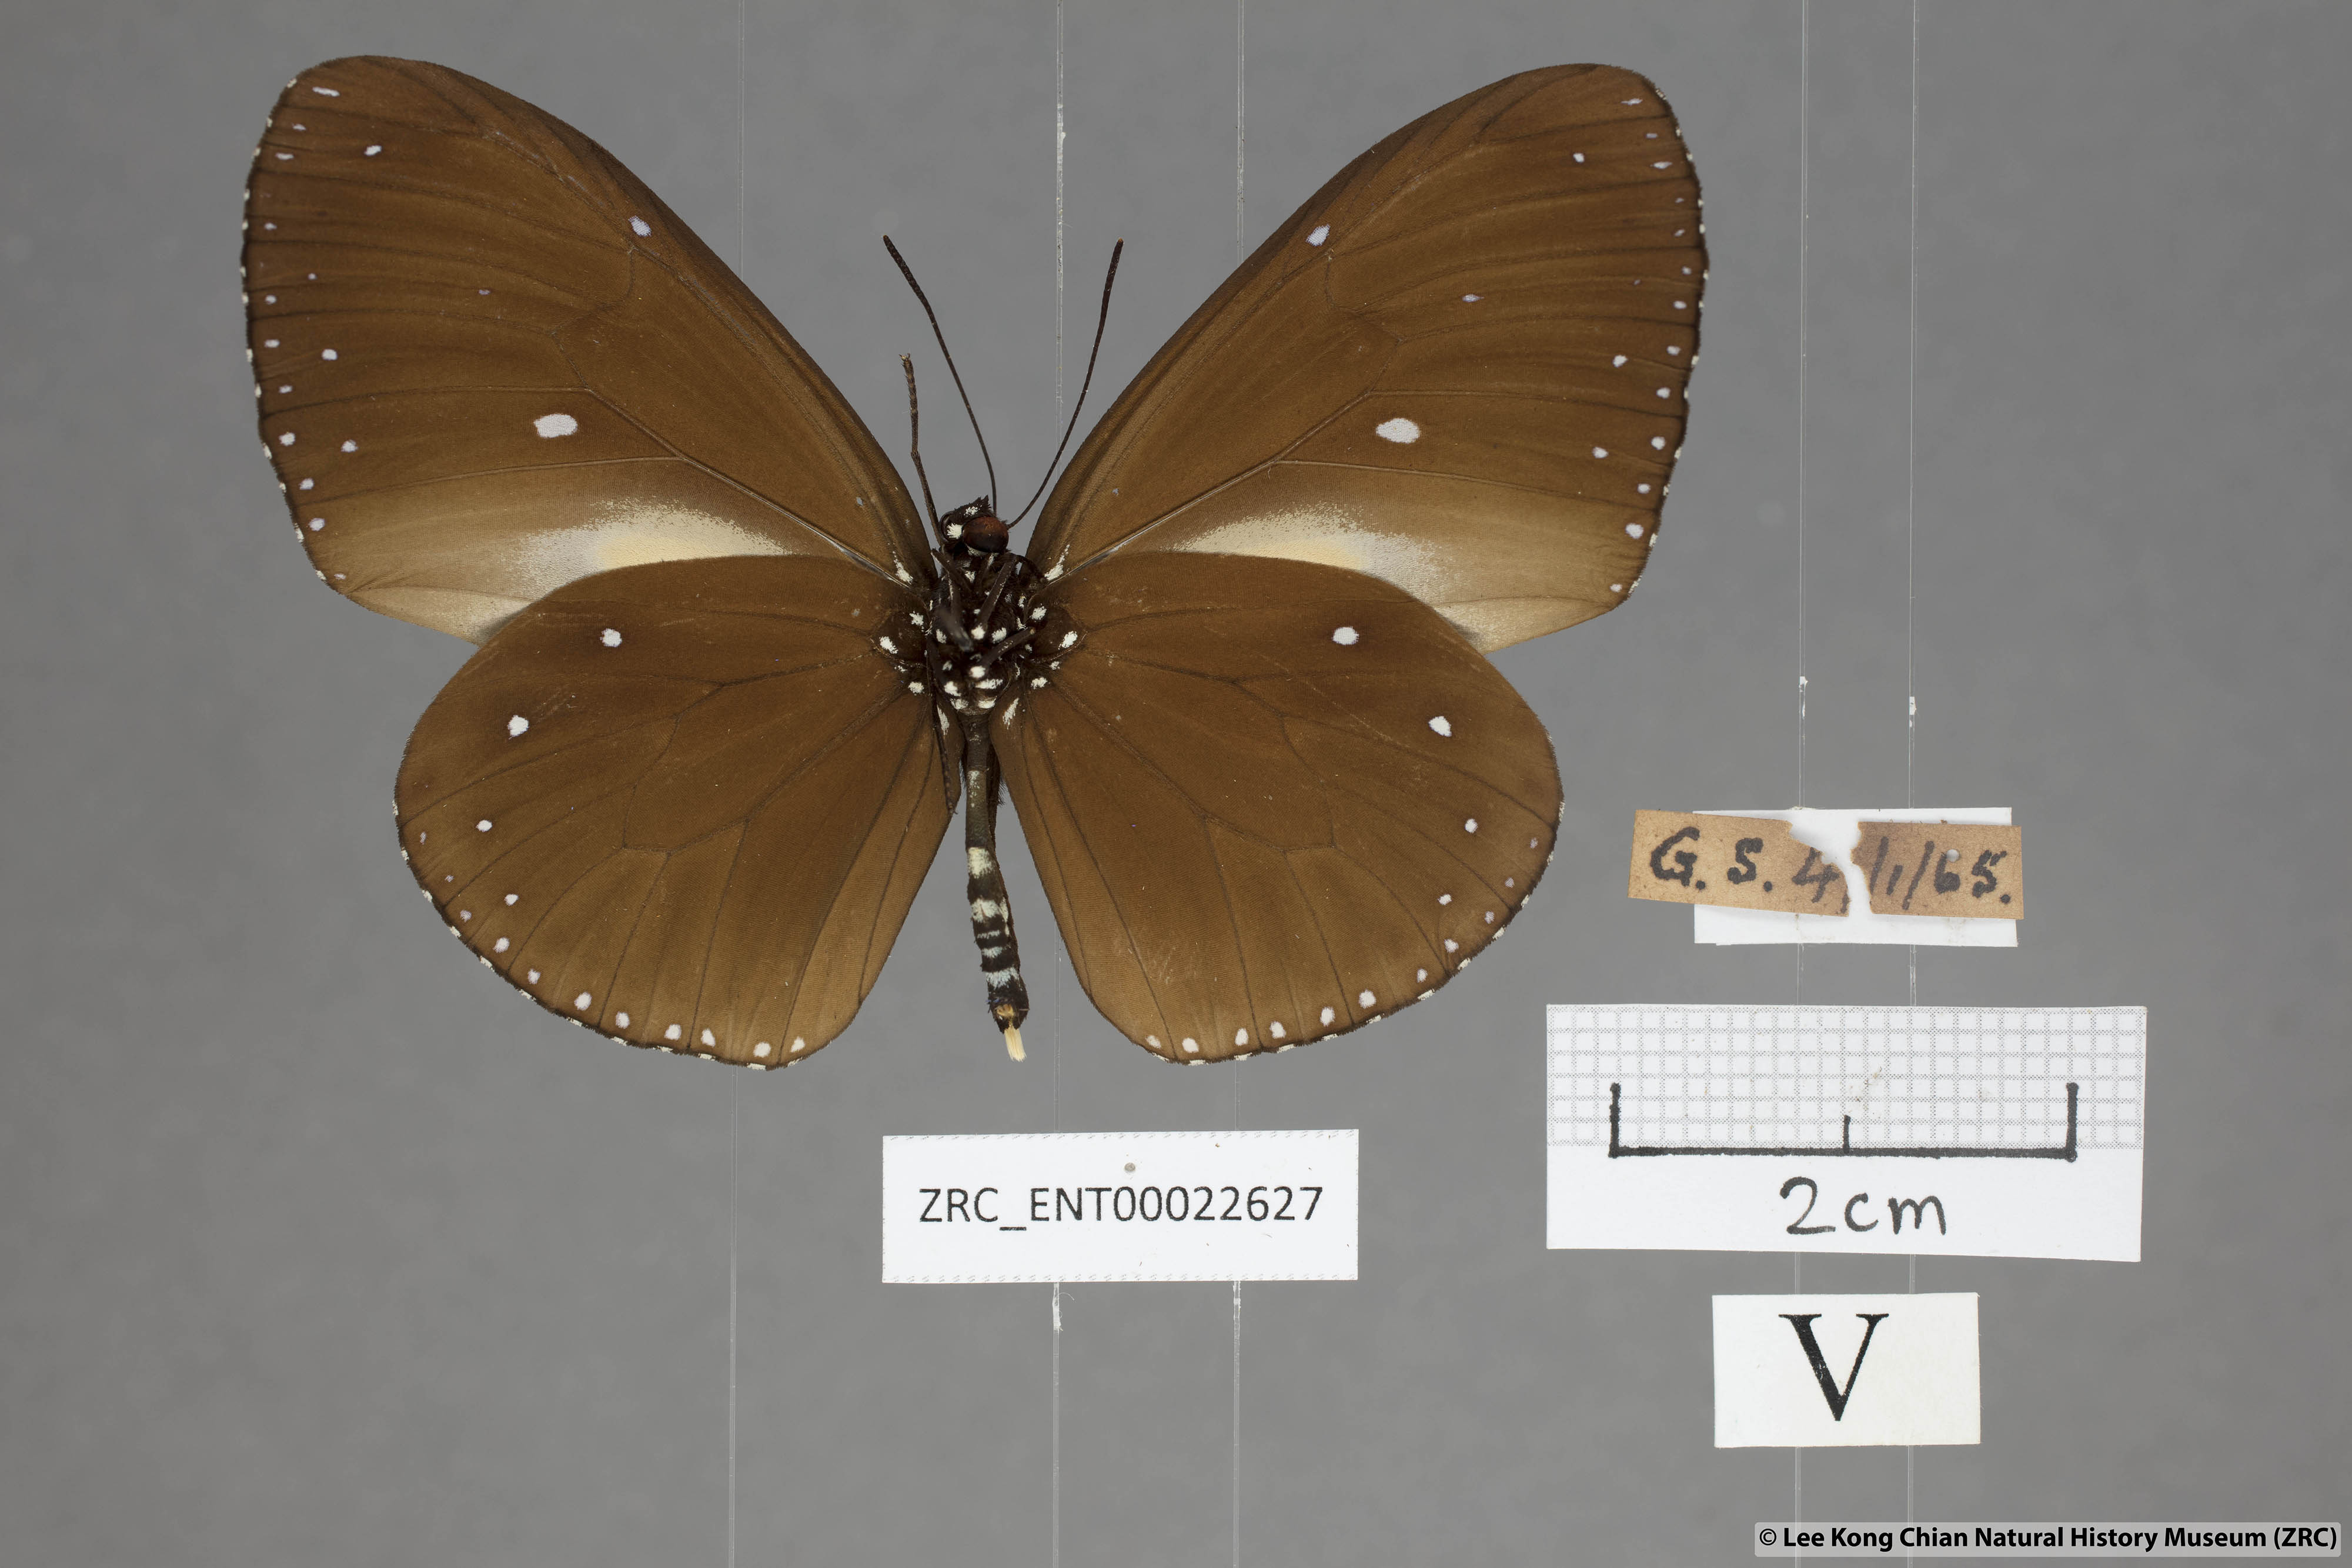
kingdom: Animalia
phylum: Arthropoda
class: Insecta
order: Lepidoptera
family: Nymphalidae
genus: Euploea
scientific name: Euploea tulliolus
